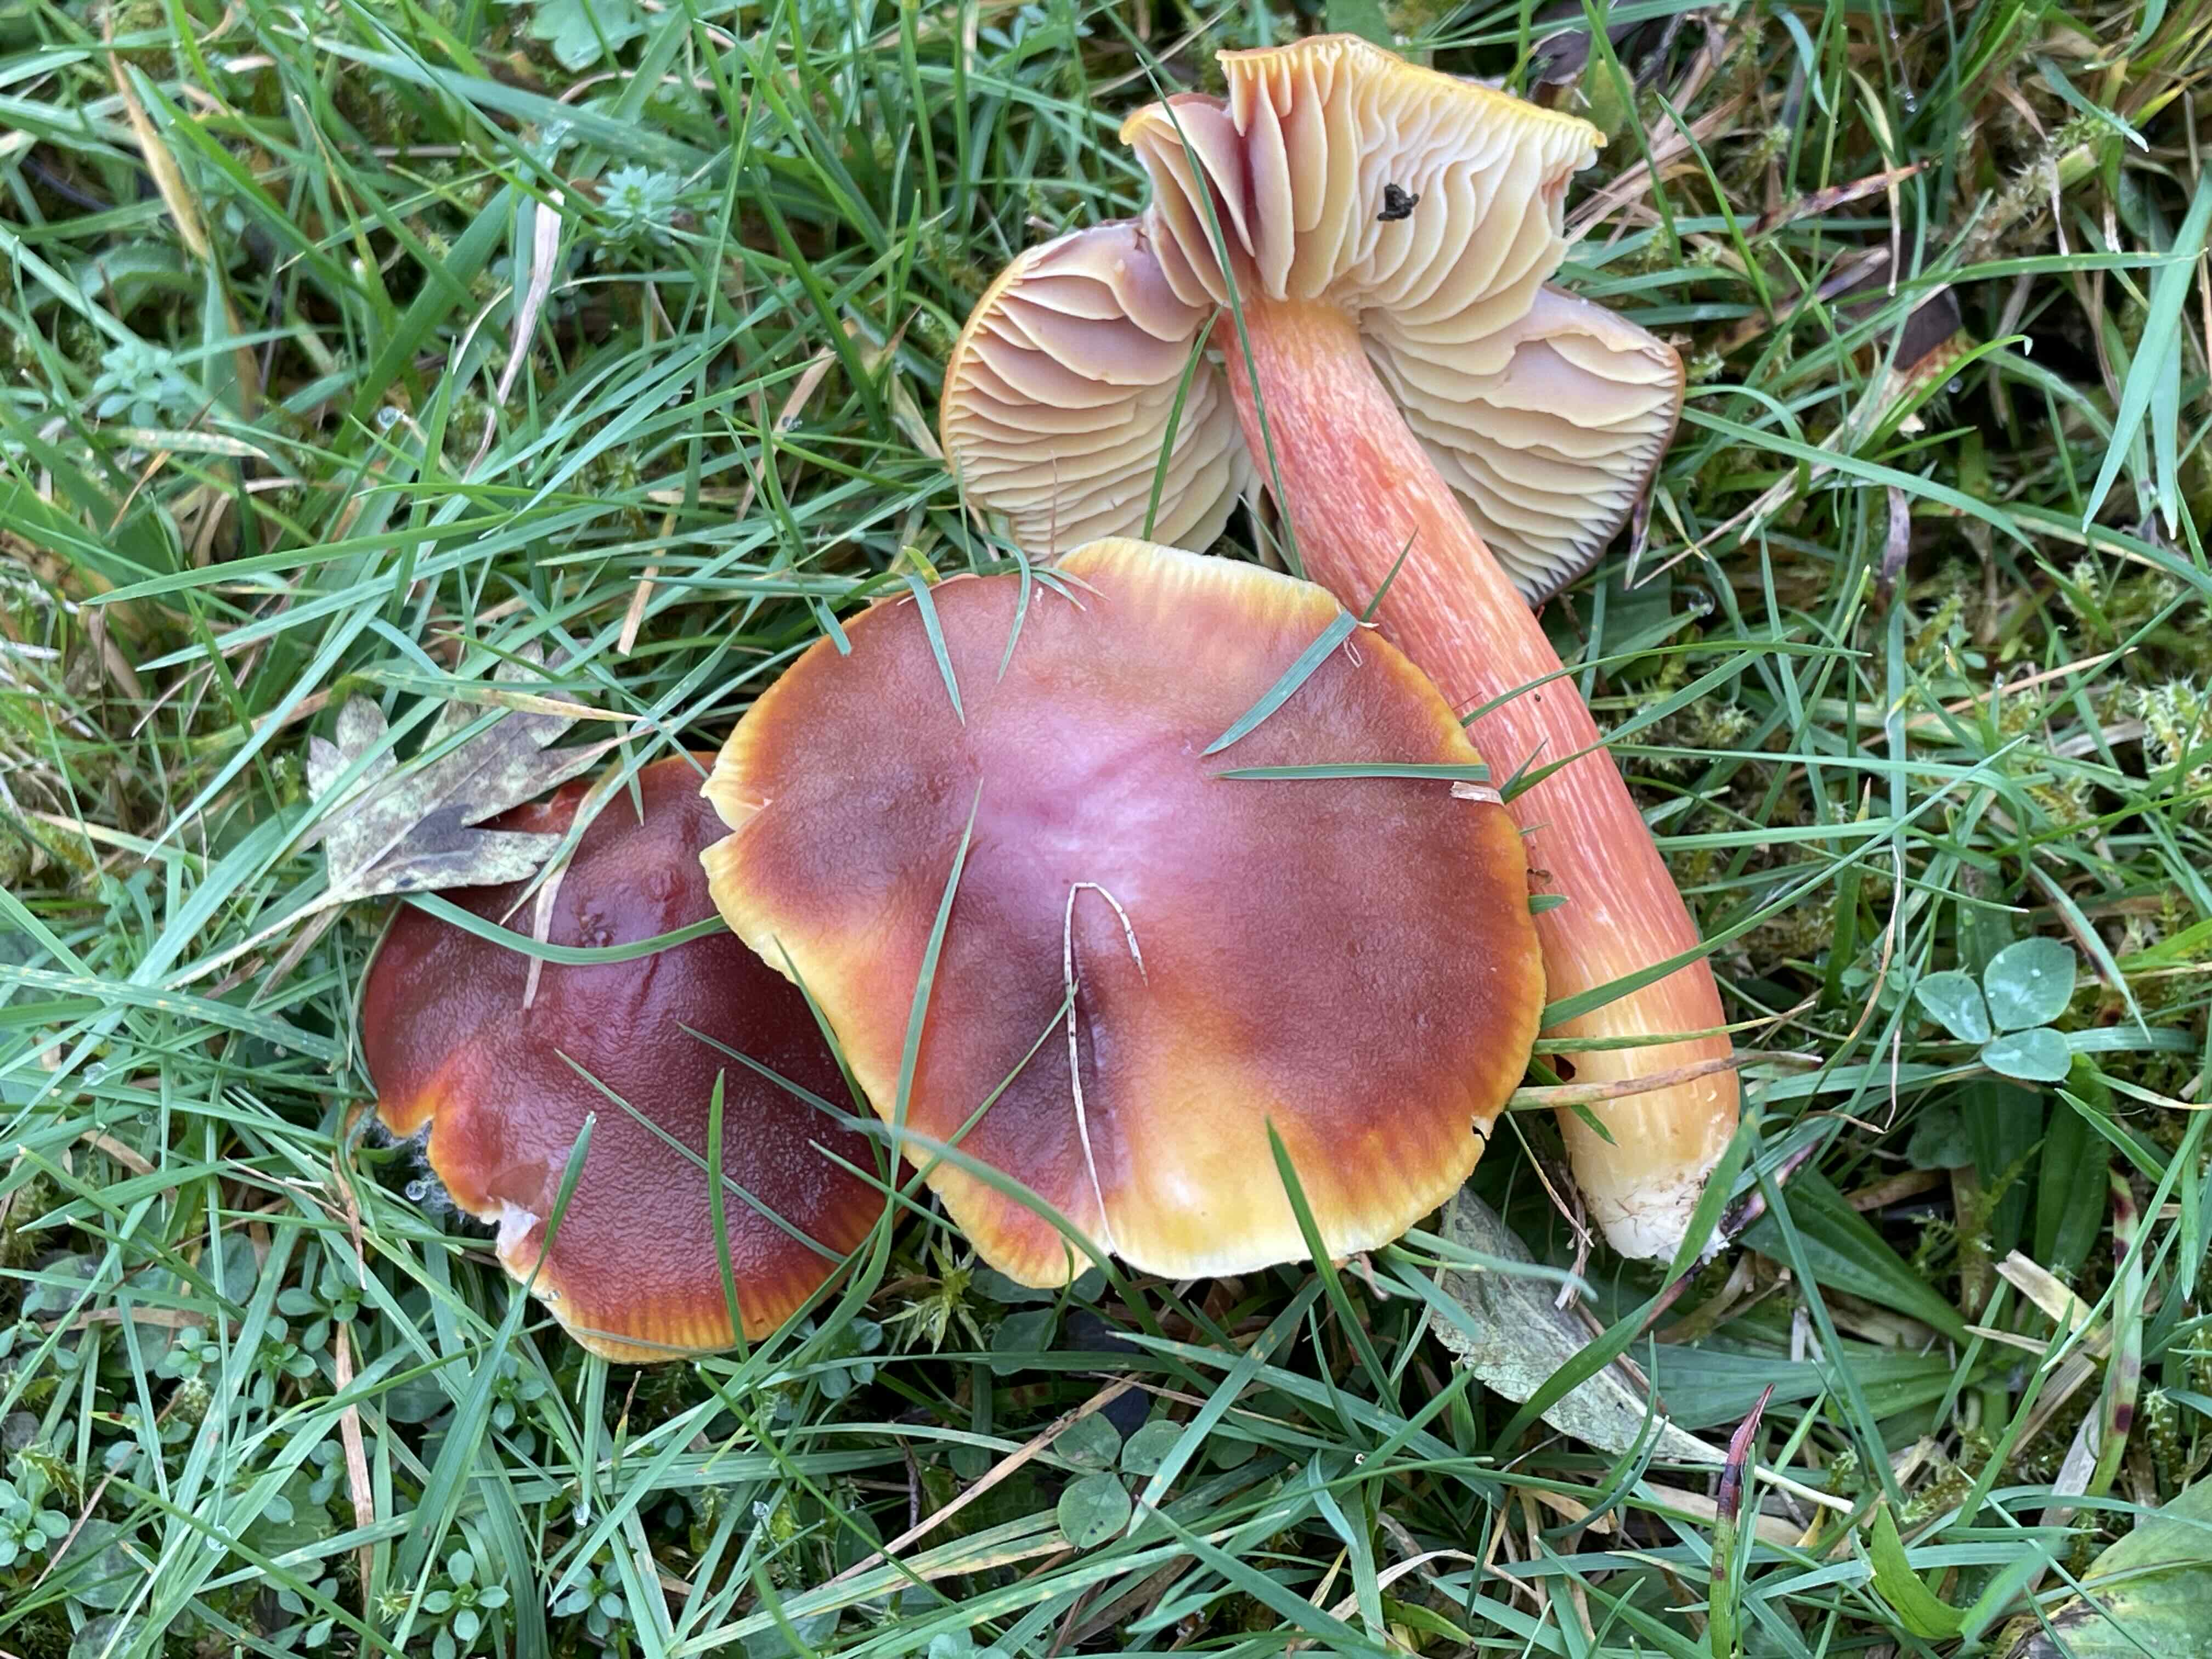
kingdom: Fungi
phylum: Basidiomycota
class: Agaricomycetes
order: Agaricales
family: Hygrophoraceae
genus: Hygrocybe
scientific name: Hygrocybe punicea
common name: skarlagen-vokshat
